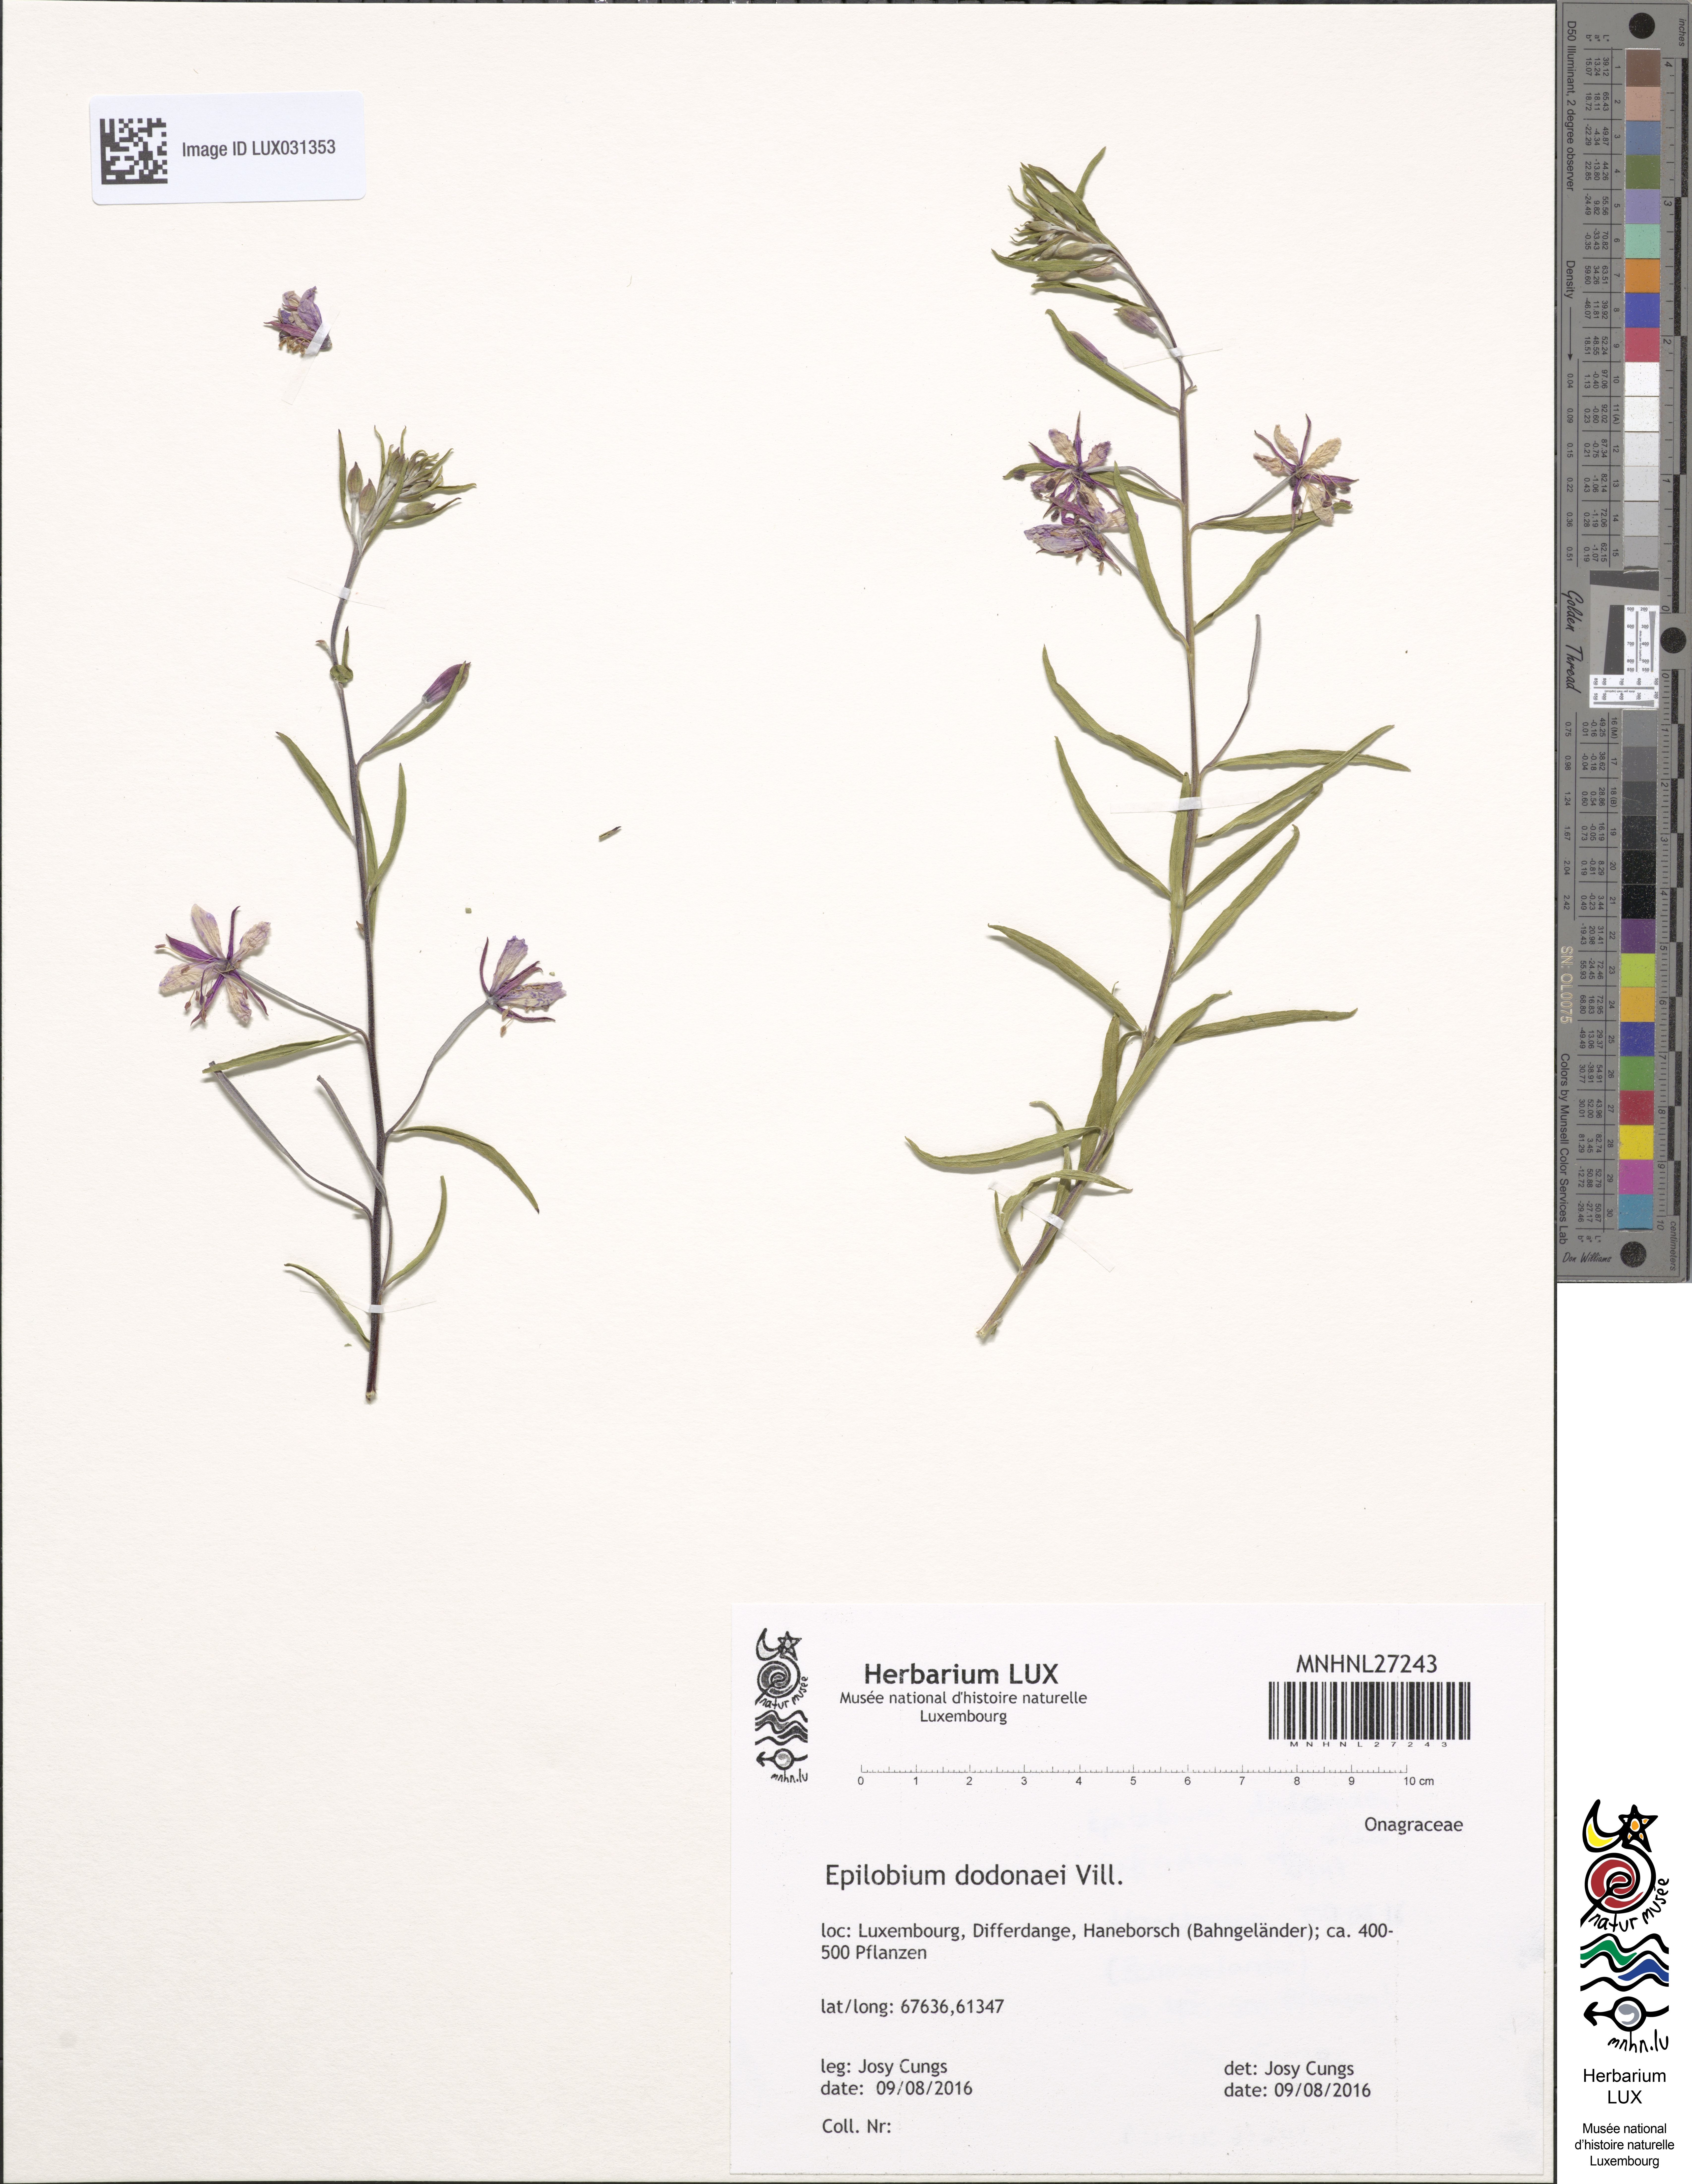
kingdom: Plantae
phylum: Tracheophyta
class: Magnoliopsida
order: Myrtales
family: Onagraceae
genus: Chamaenerion
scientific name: Chamaenerion dodonaei
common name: Rosemary-leaved willowherb
